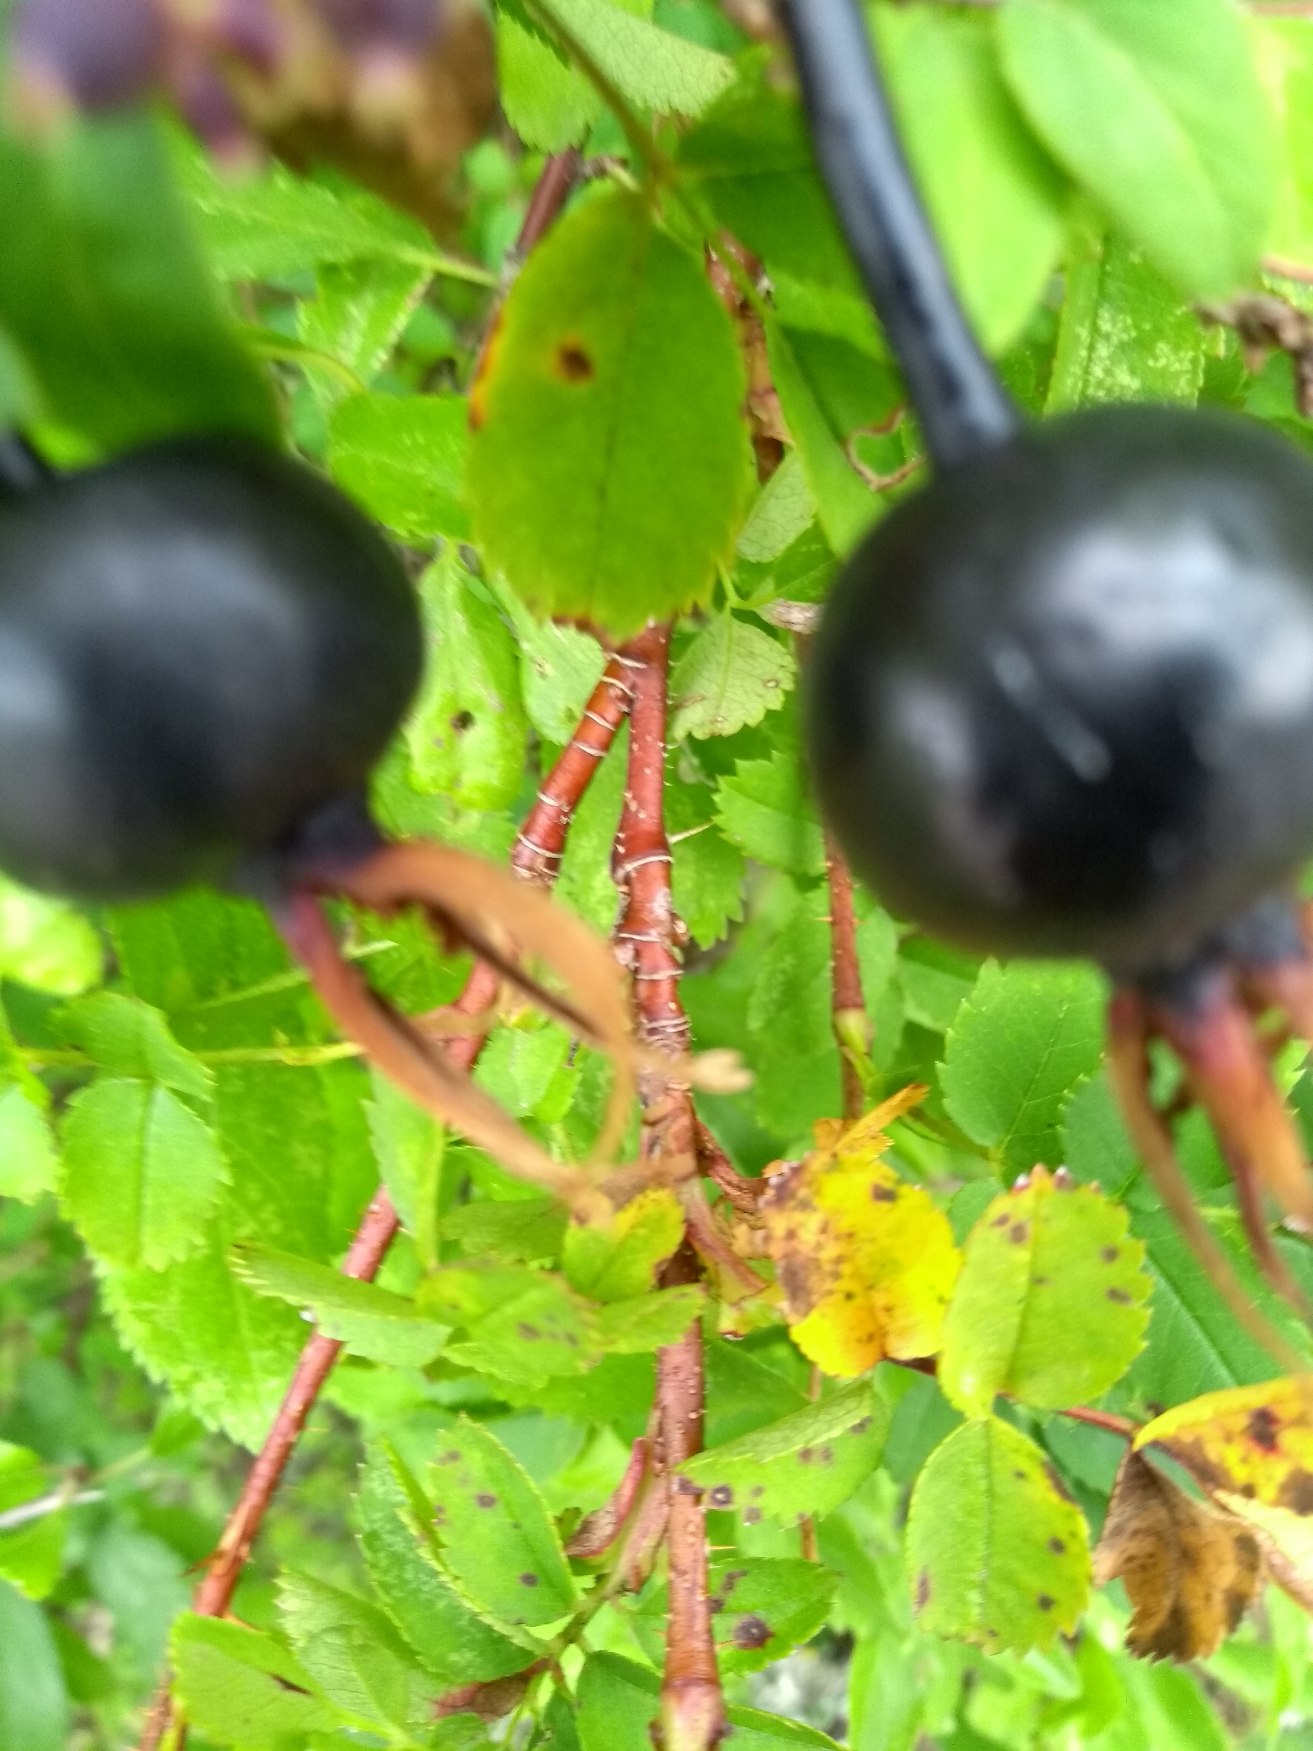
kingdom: Plantae
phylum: Tracheophyta
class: Magnoliopsida
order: Rosales
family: Rosaceae
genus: Rosa
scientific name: Rosa spinosissima
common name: Klit-rose
